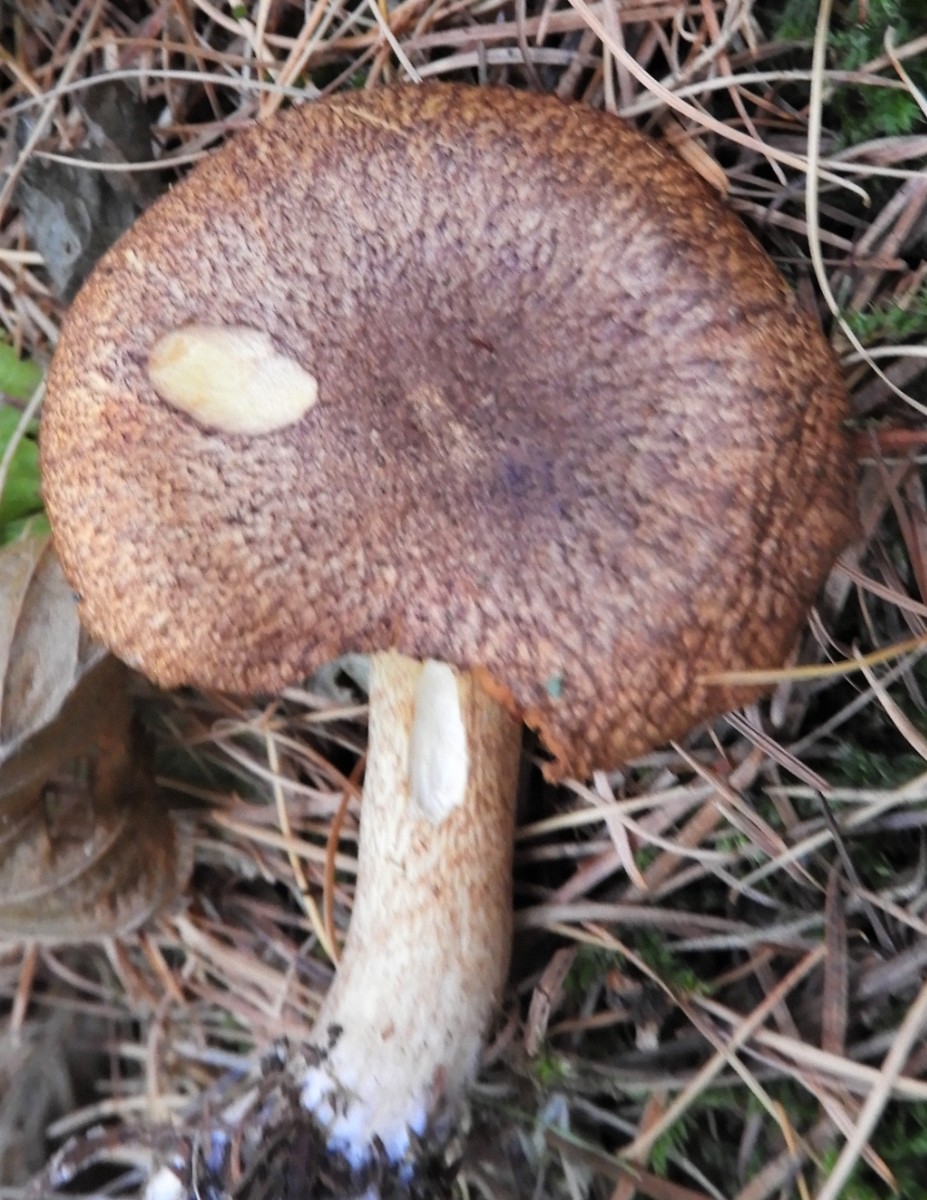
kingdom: Fungi
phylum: Basidiomycota
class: Agaricomycetes
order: Agaricales
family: Tricholomataceae
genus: Tricholomopsis
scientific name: Tricholomopsis rutilans
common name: purpur-væbnerhat
